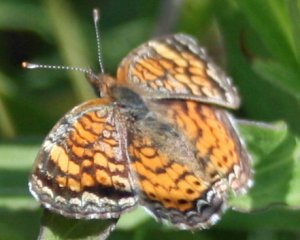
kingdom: Animalia
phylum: Arthropoda
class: Insecta
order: Lepidoptera
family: Nymphalidae
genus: Phyciodes
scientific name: Phyciodes tharos
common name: Northern Crescent
